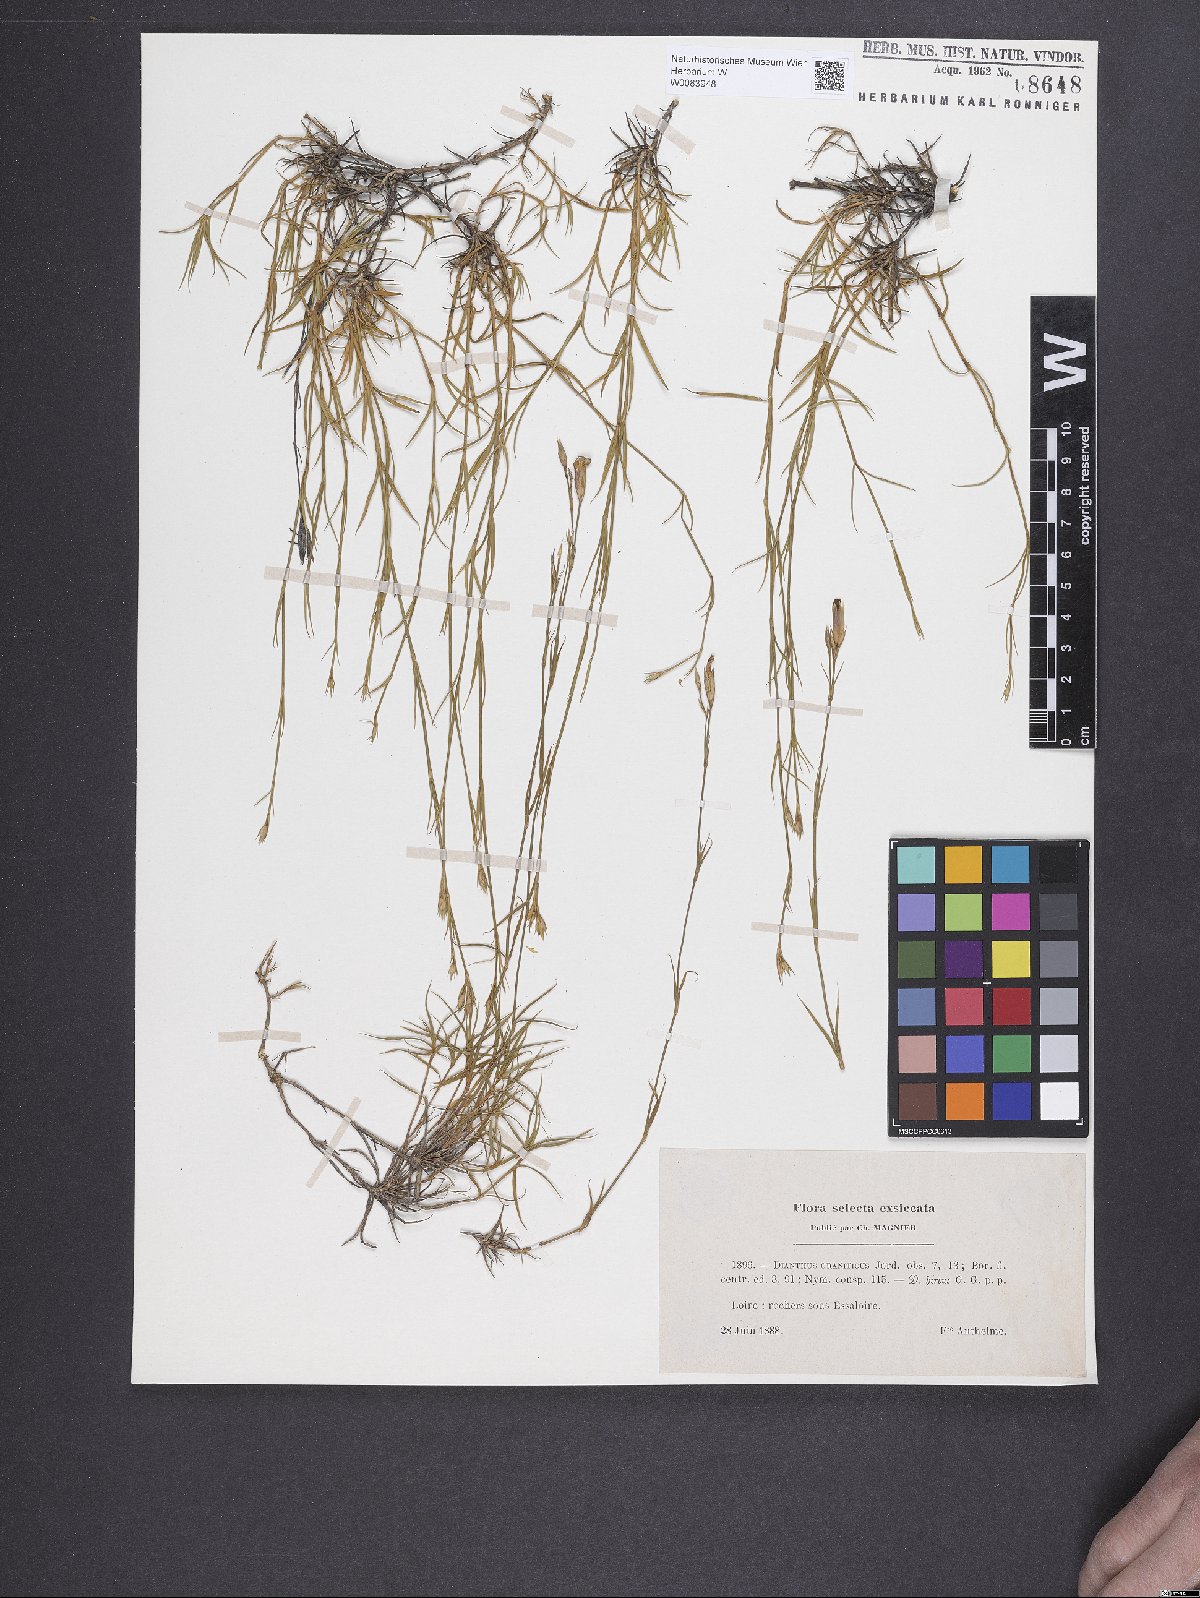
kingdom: Plantae
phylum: Tracheophyta
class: Magnoliopsida
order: Caryophyllales
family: Caryophyllaceae
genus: Dianthus
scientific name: Dianthus graniticus
